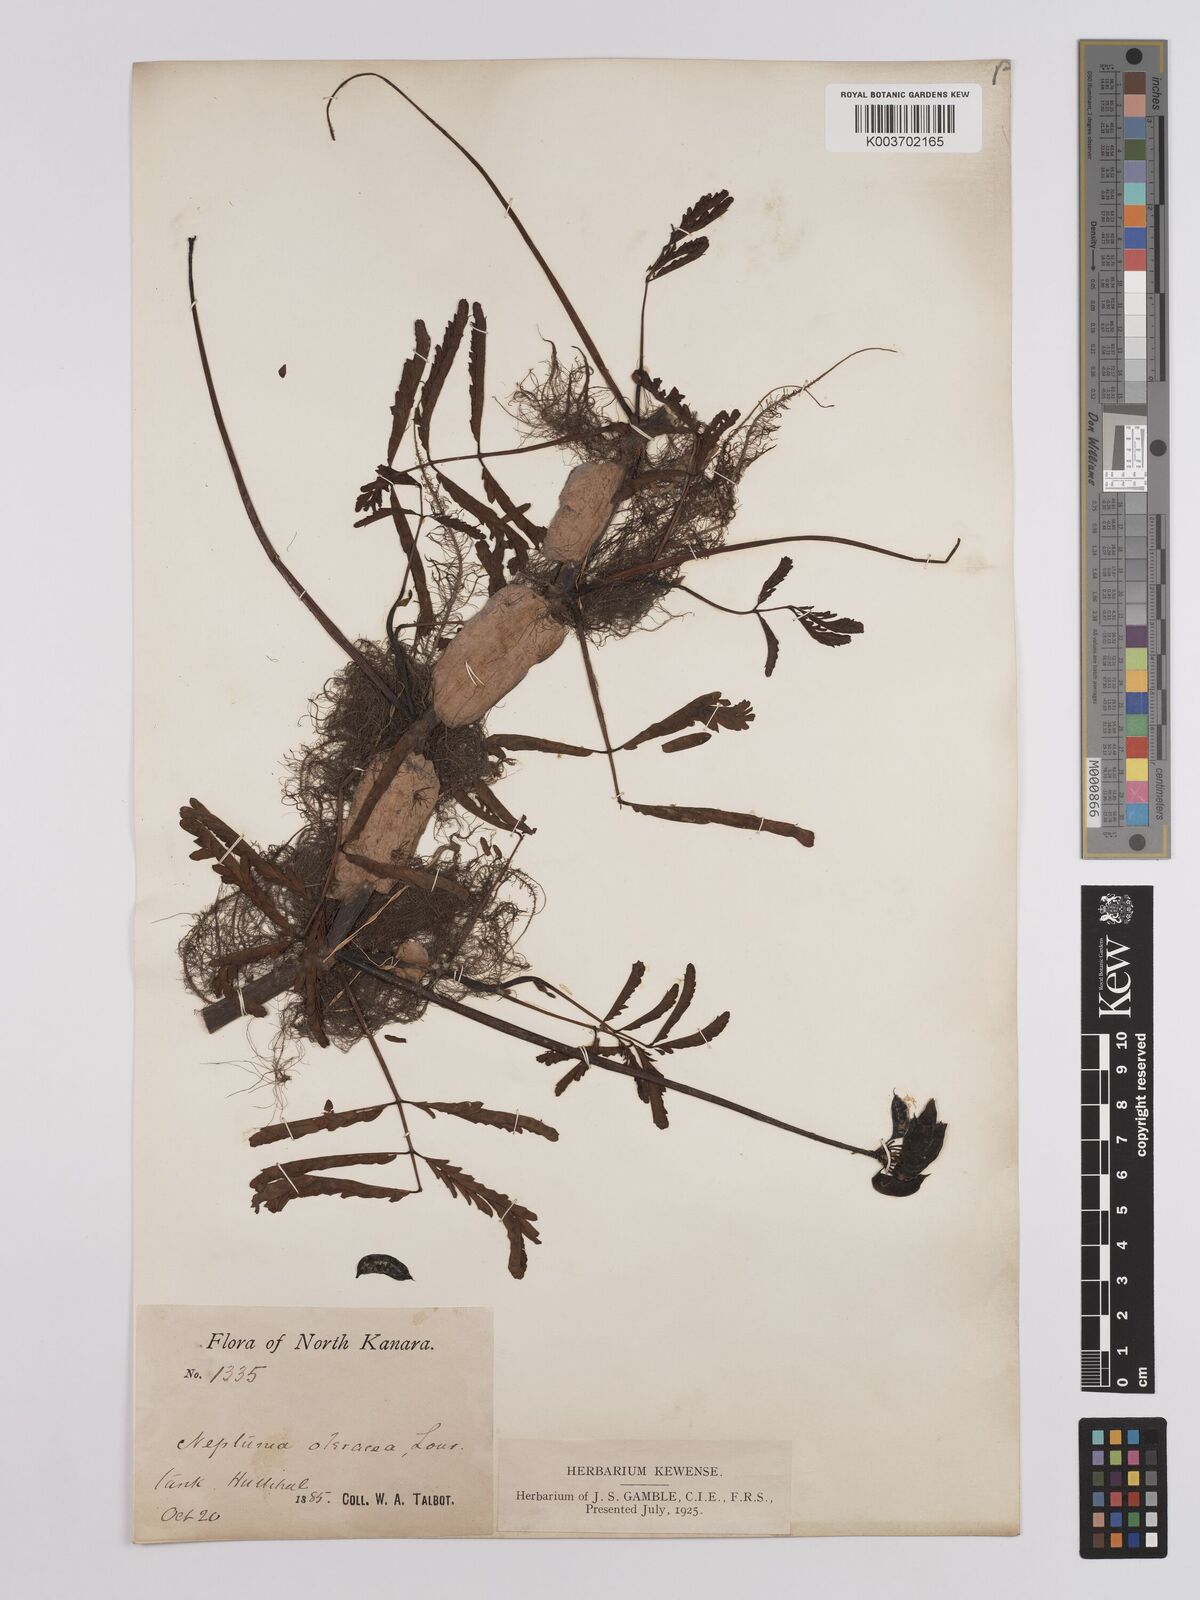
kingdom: Plantae
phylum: Tracheophyta
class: Magnoliopsida
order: Fabales
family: Fabaceae
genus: Neptunia
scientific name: Neptunia prostrata
